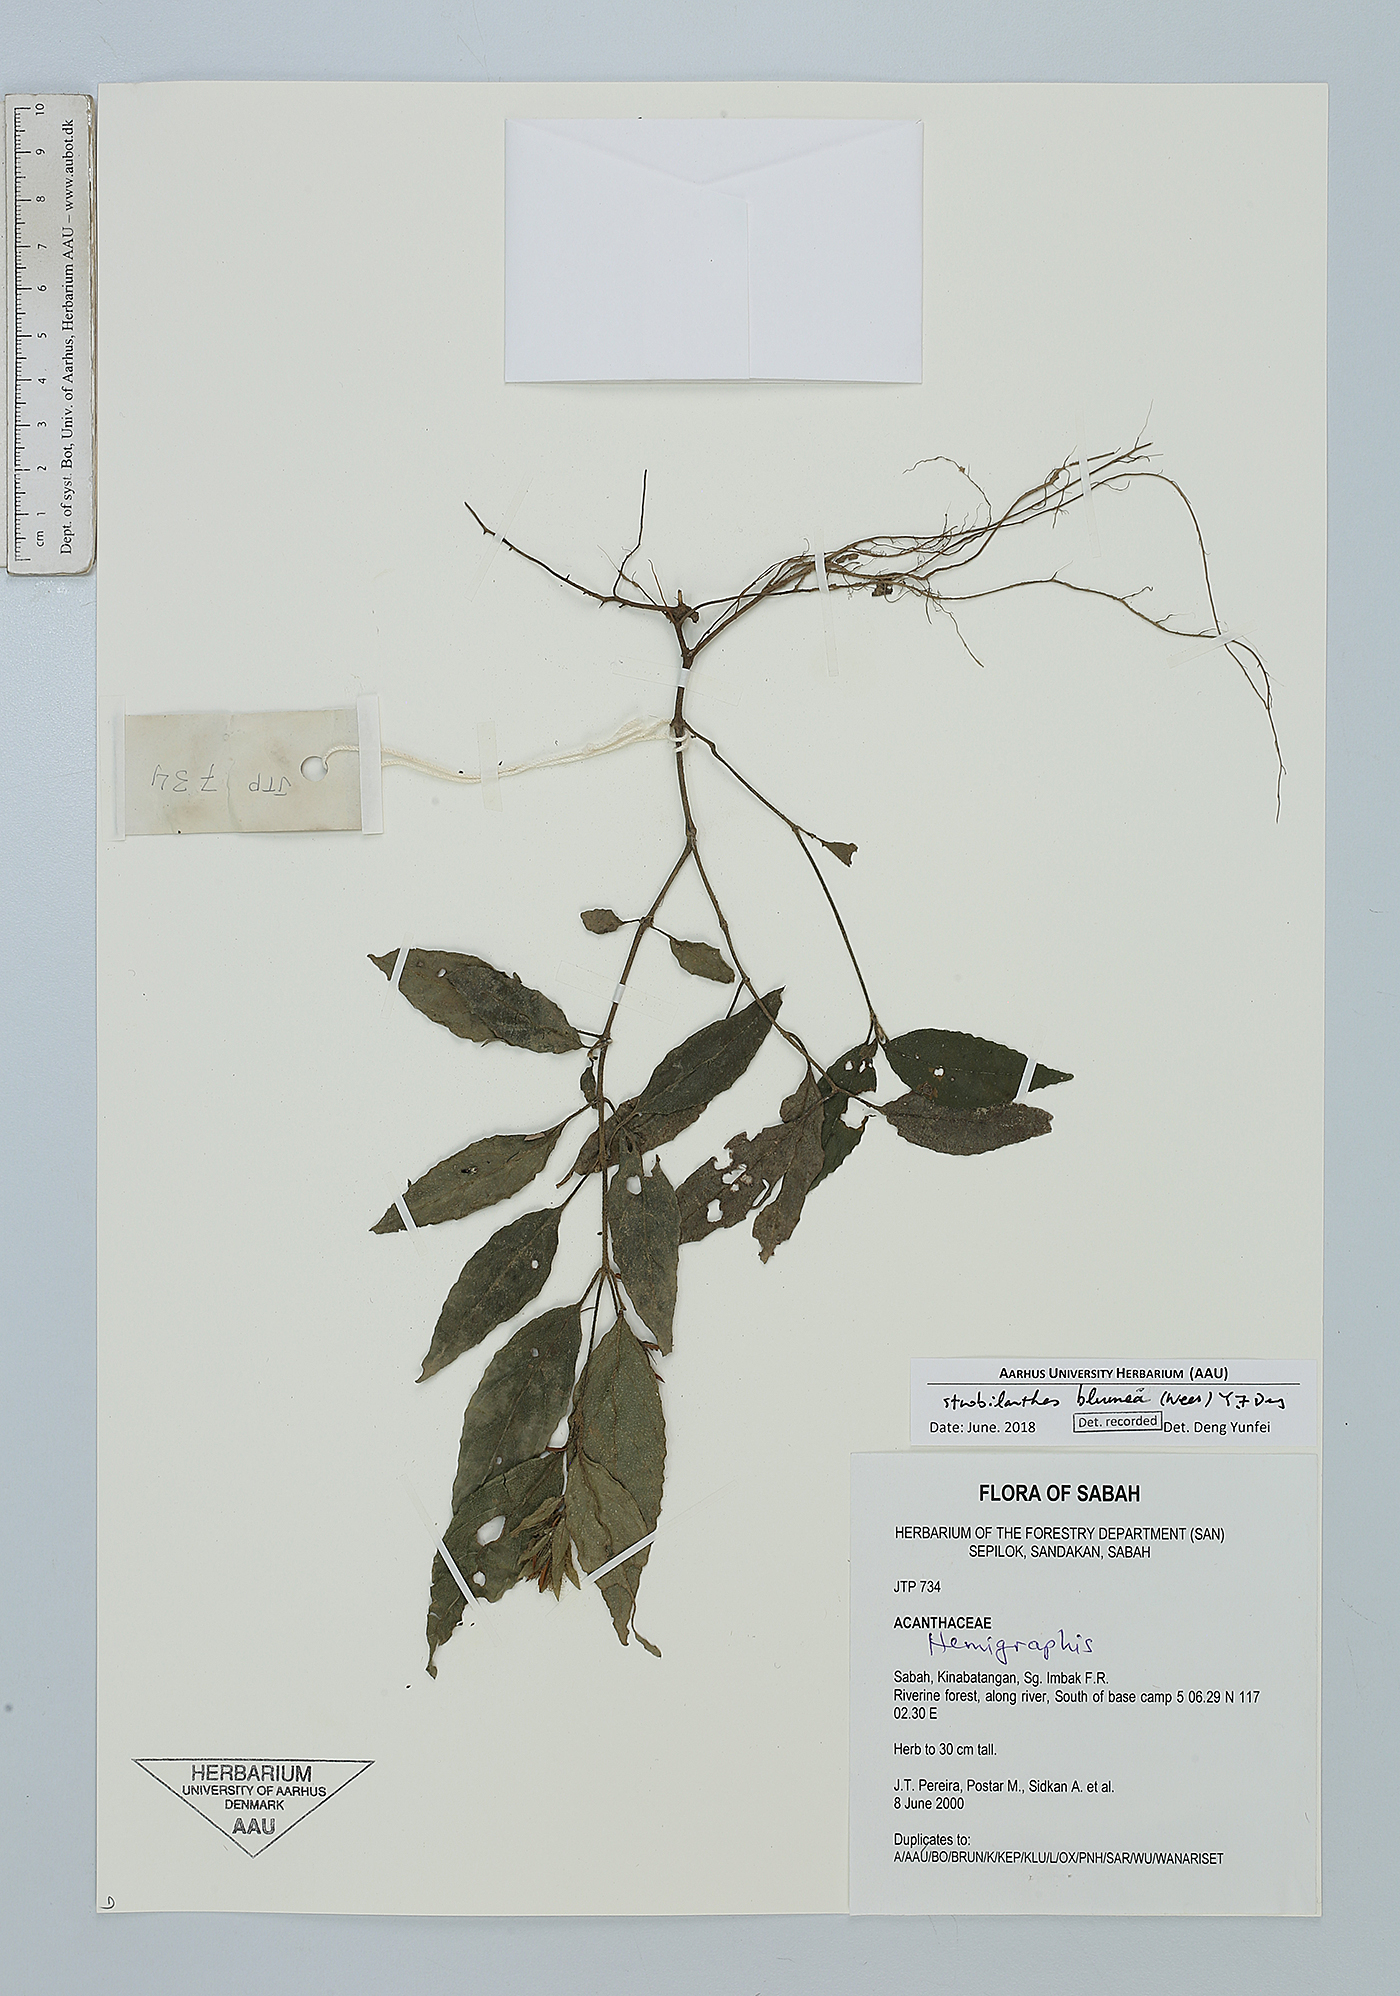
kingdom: Plantae
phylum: Tracheophyta
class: Magnoliopsida
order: Lamiales
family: Acanthaceae
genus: Strobilanthes
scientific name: Strobilanthes blumeana
